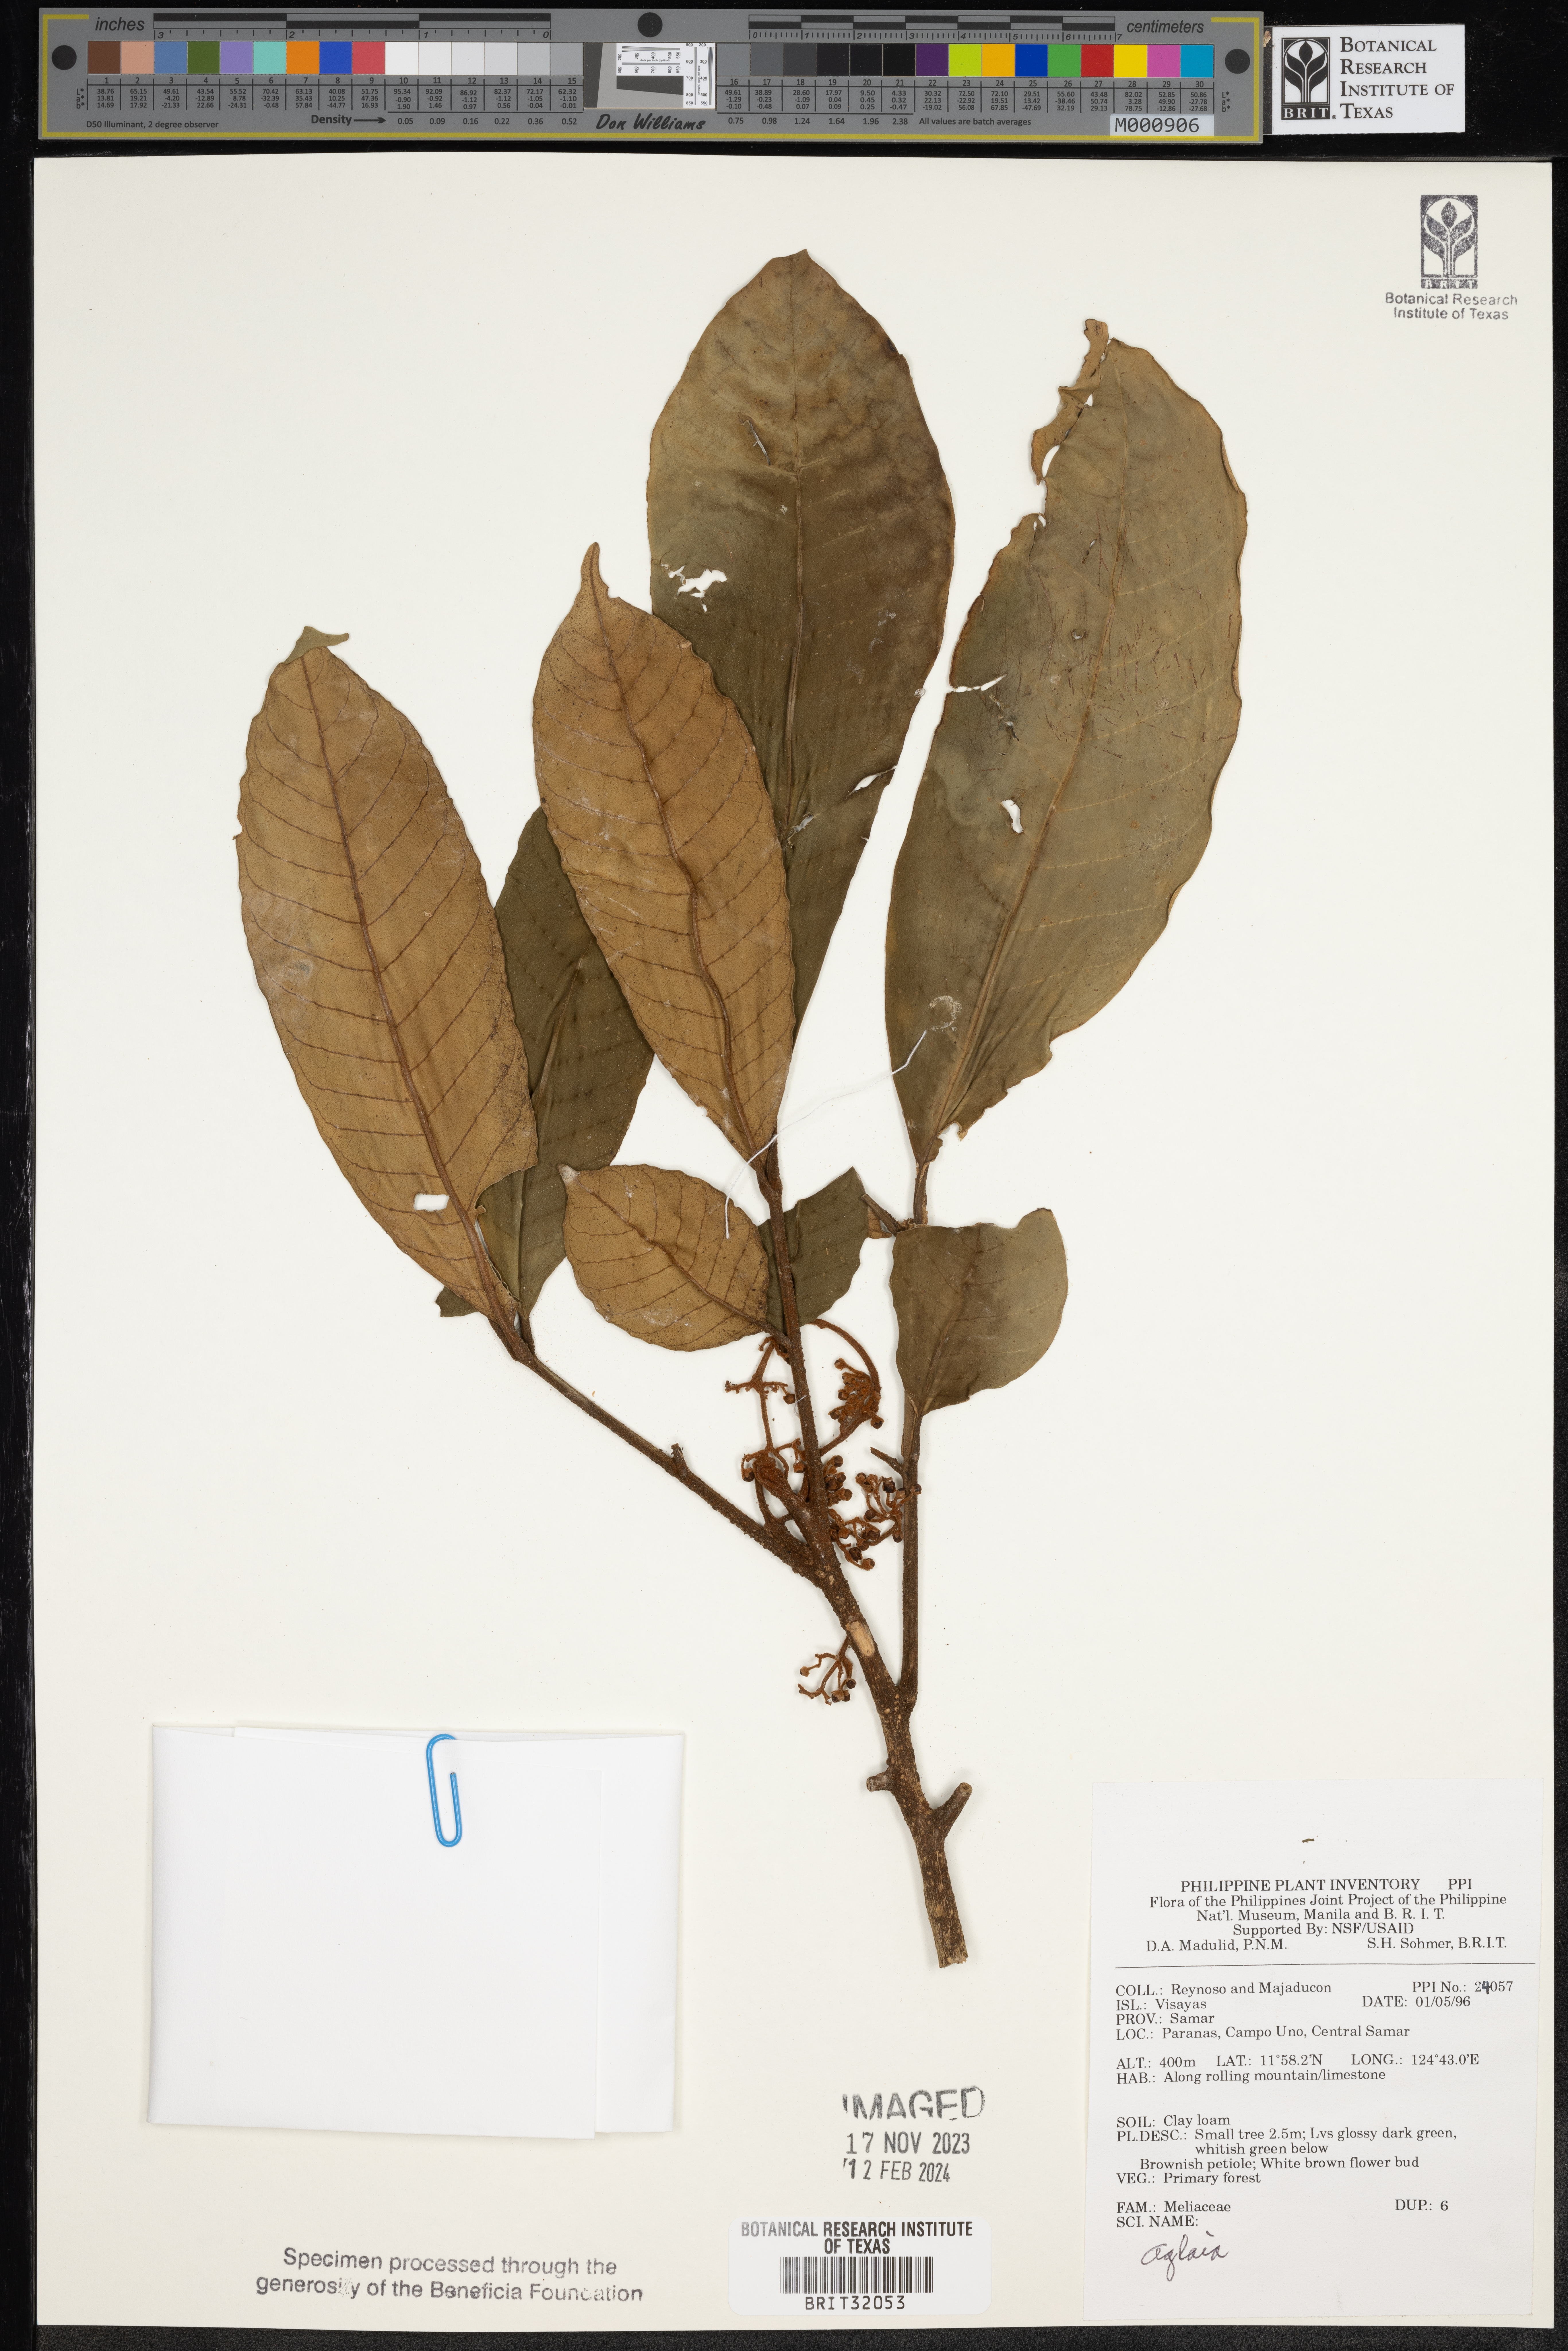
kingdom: Plantae
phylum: Tracheophyta
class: Magnoliopsida
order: Sapindales
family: Meliaceae
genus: Aglaia
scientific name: Aglaia
